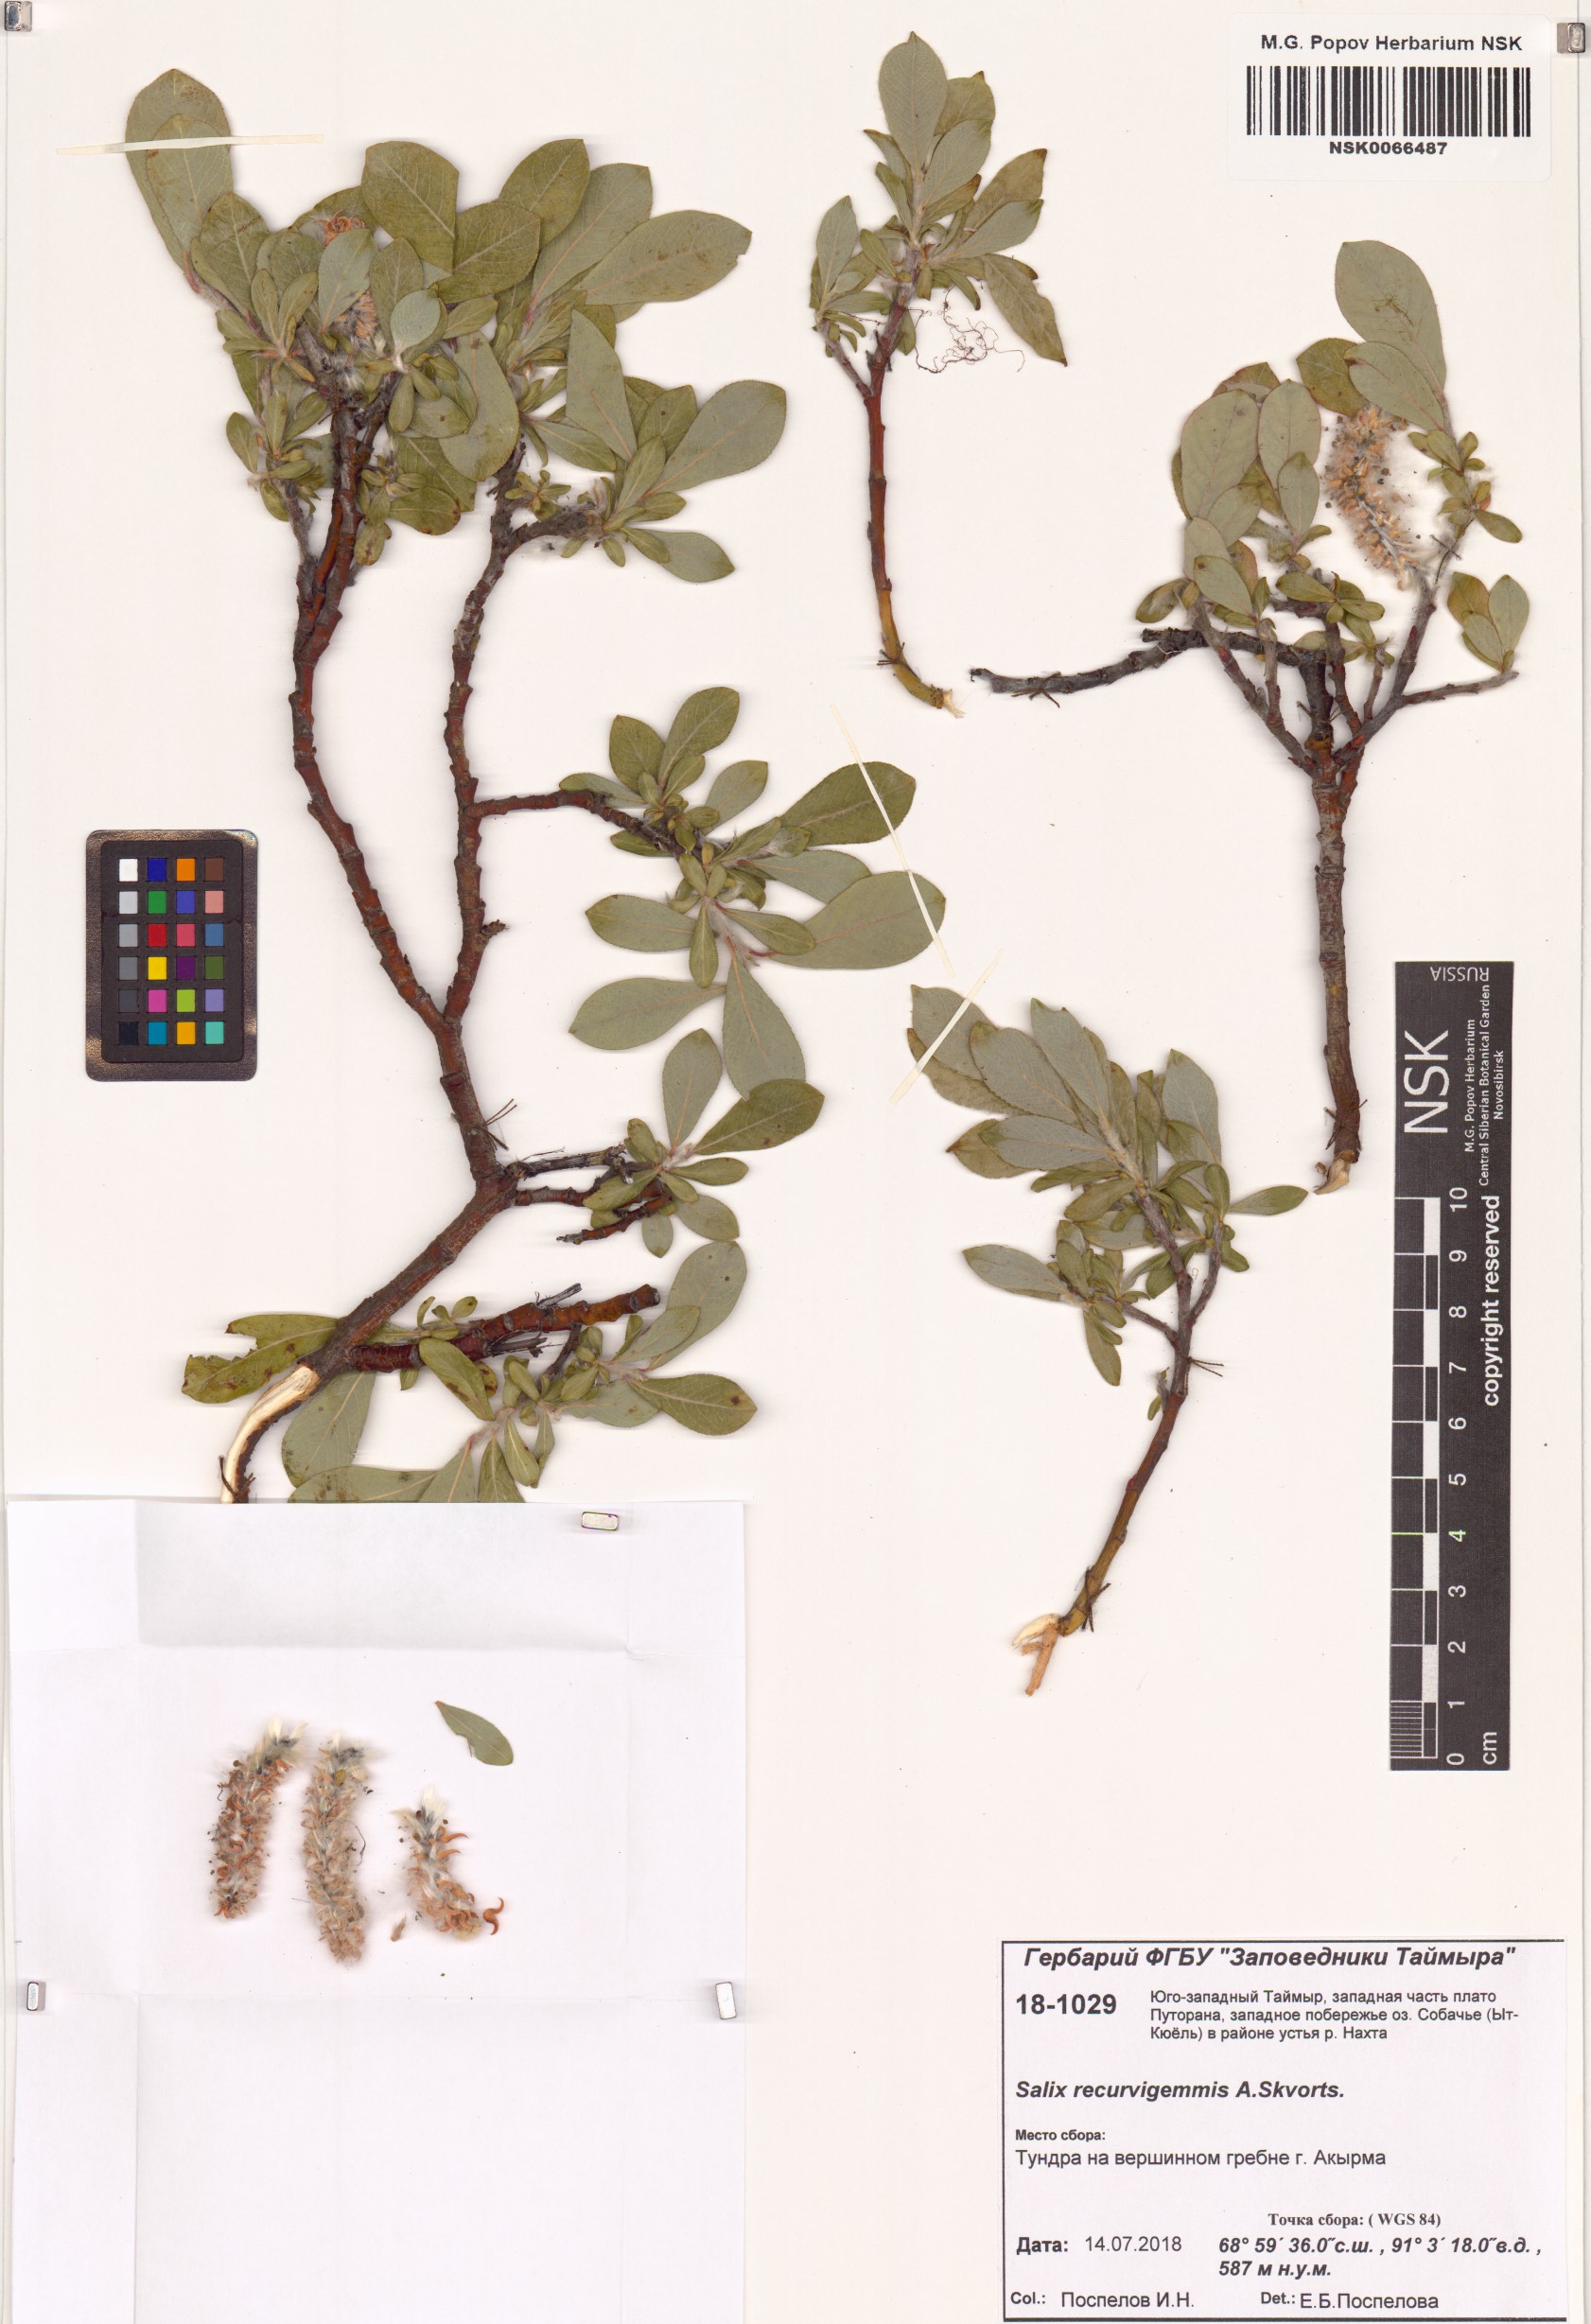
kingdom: Plantae
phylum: Tracheophyta
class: Magnoliopsida
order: Malpighiales
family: Salicaceae
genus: Salix
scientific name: Salix recurvigemmata
